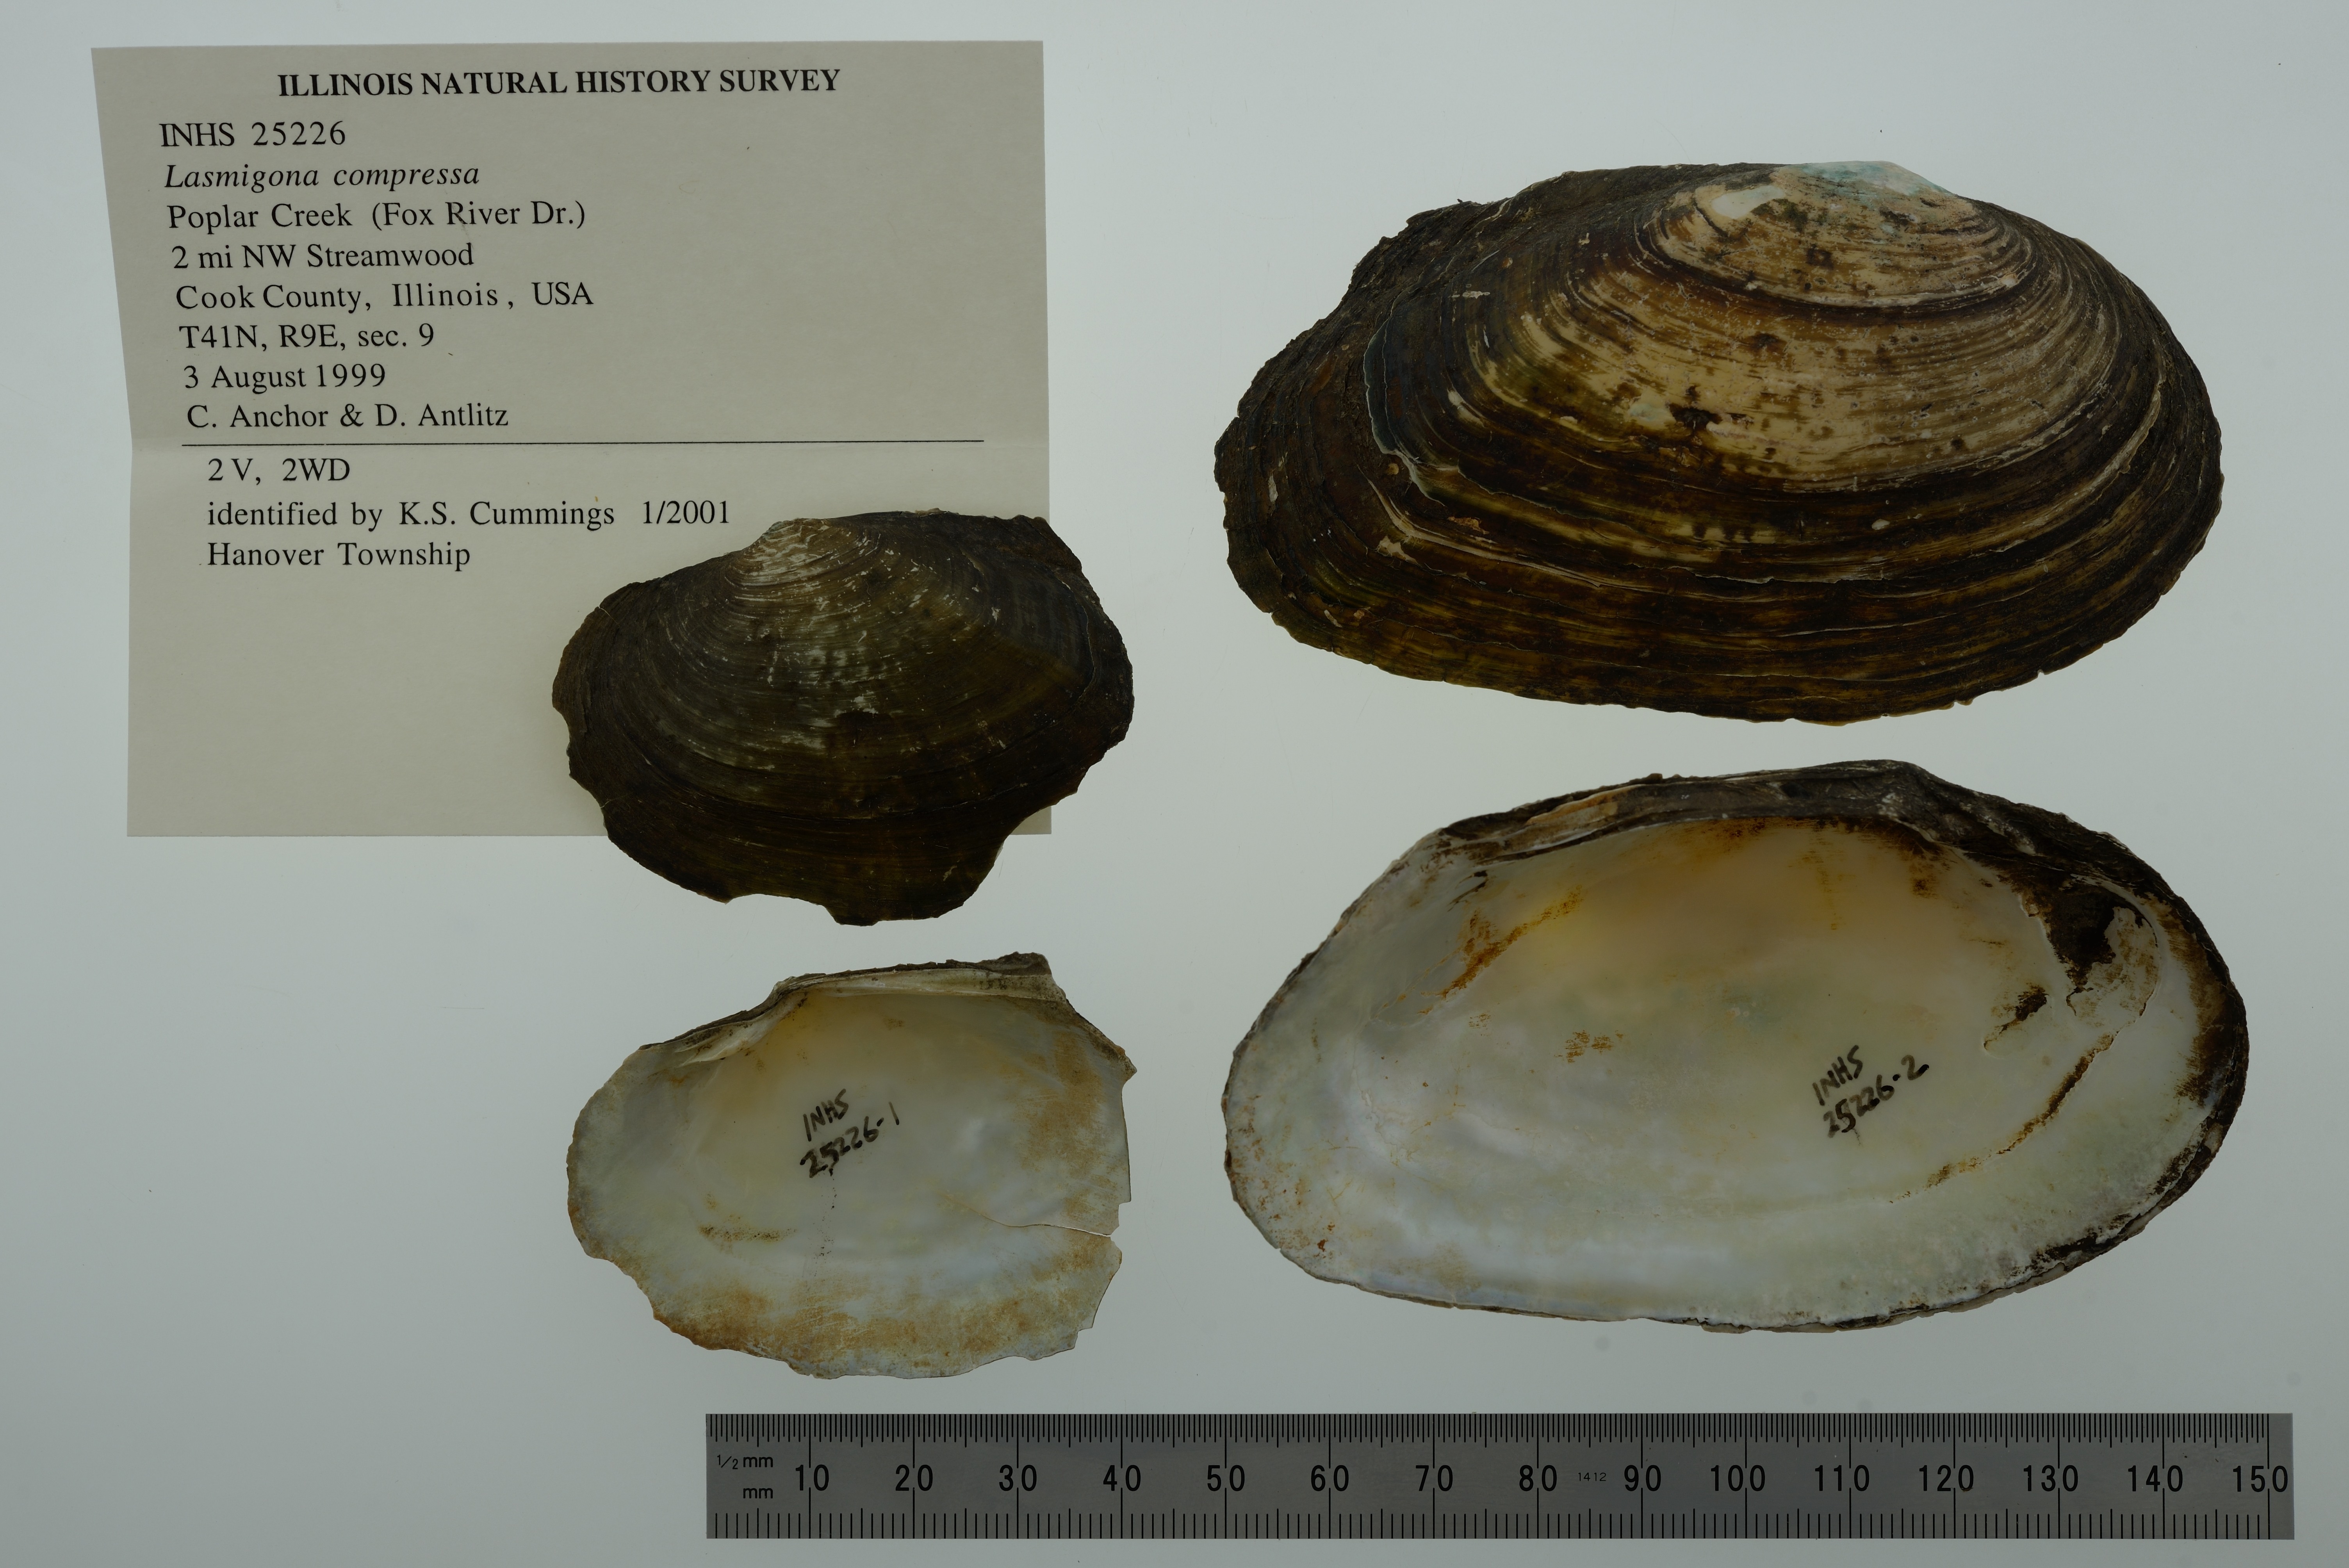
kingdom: Animalia
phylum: Mollusca
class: Bivalvia
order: Unionida
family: Unionidae
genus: Lasmigona
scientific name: Lasmigona compressa
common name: Creek heelsplitter
